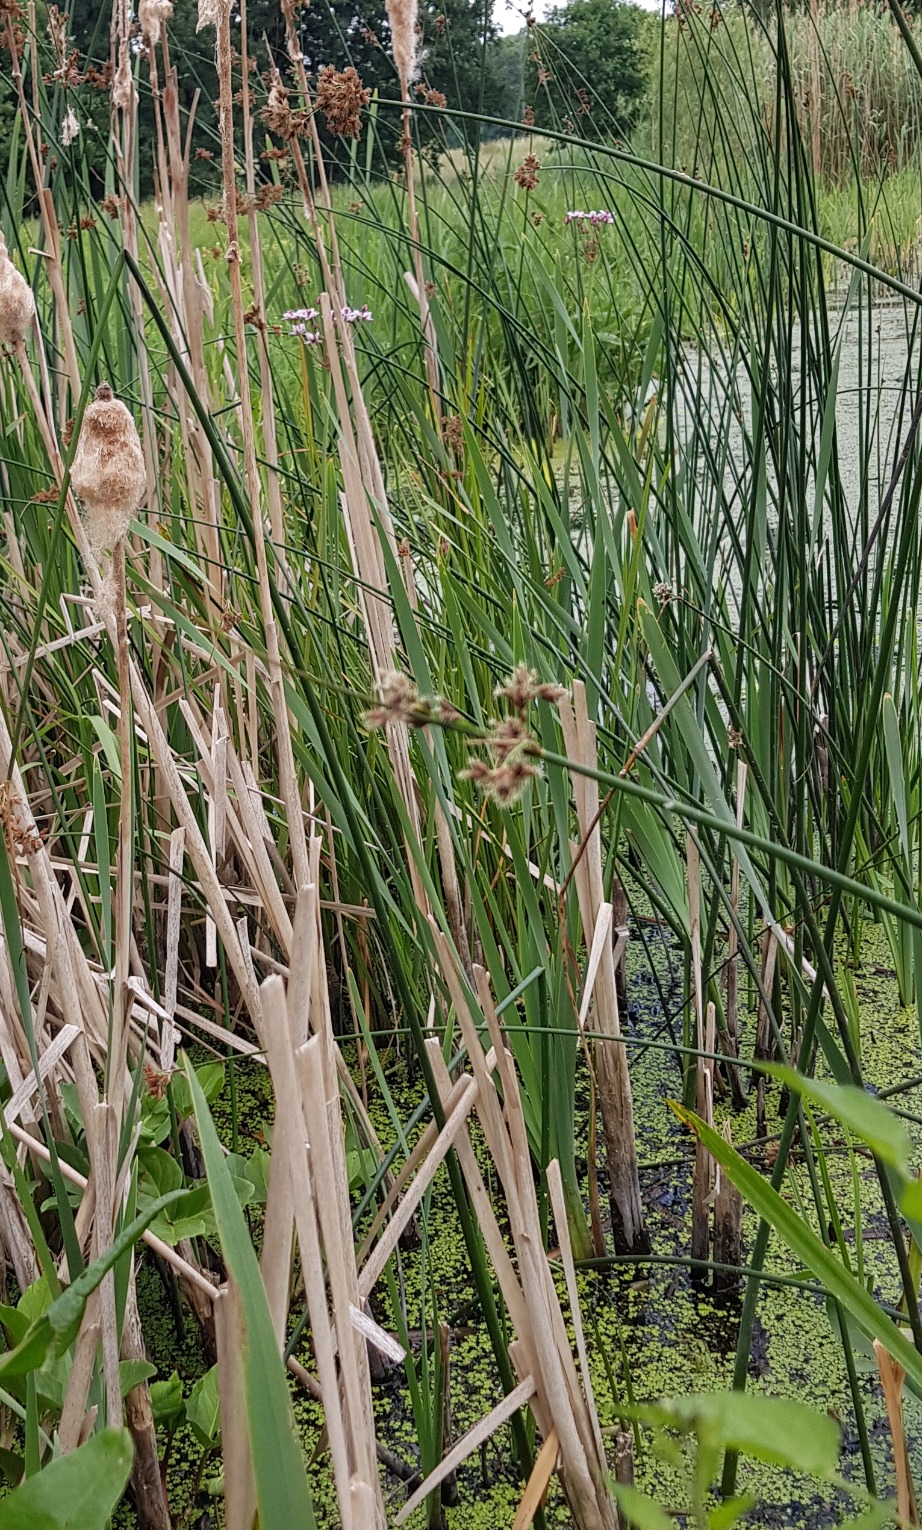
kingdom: Plantae
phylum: Tracheophyta
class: Liliopsida
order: Alismatales
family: Butomaceae
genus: Butomus
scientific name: Butomus umbellatus
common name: Brudelys
